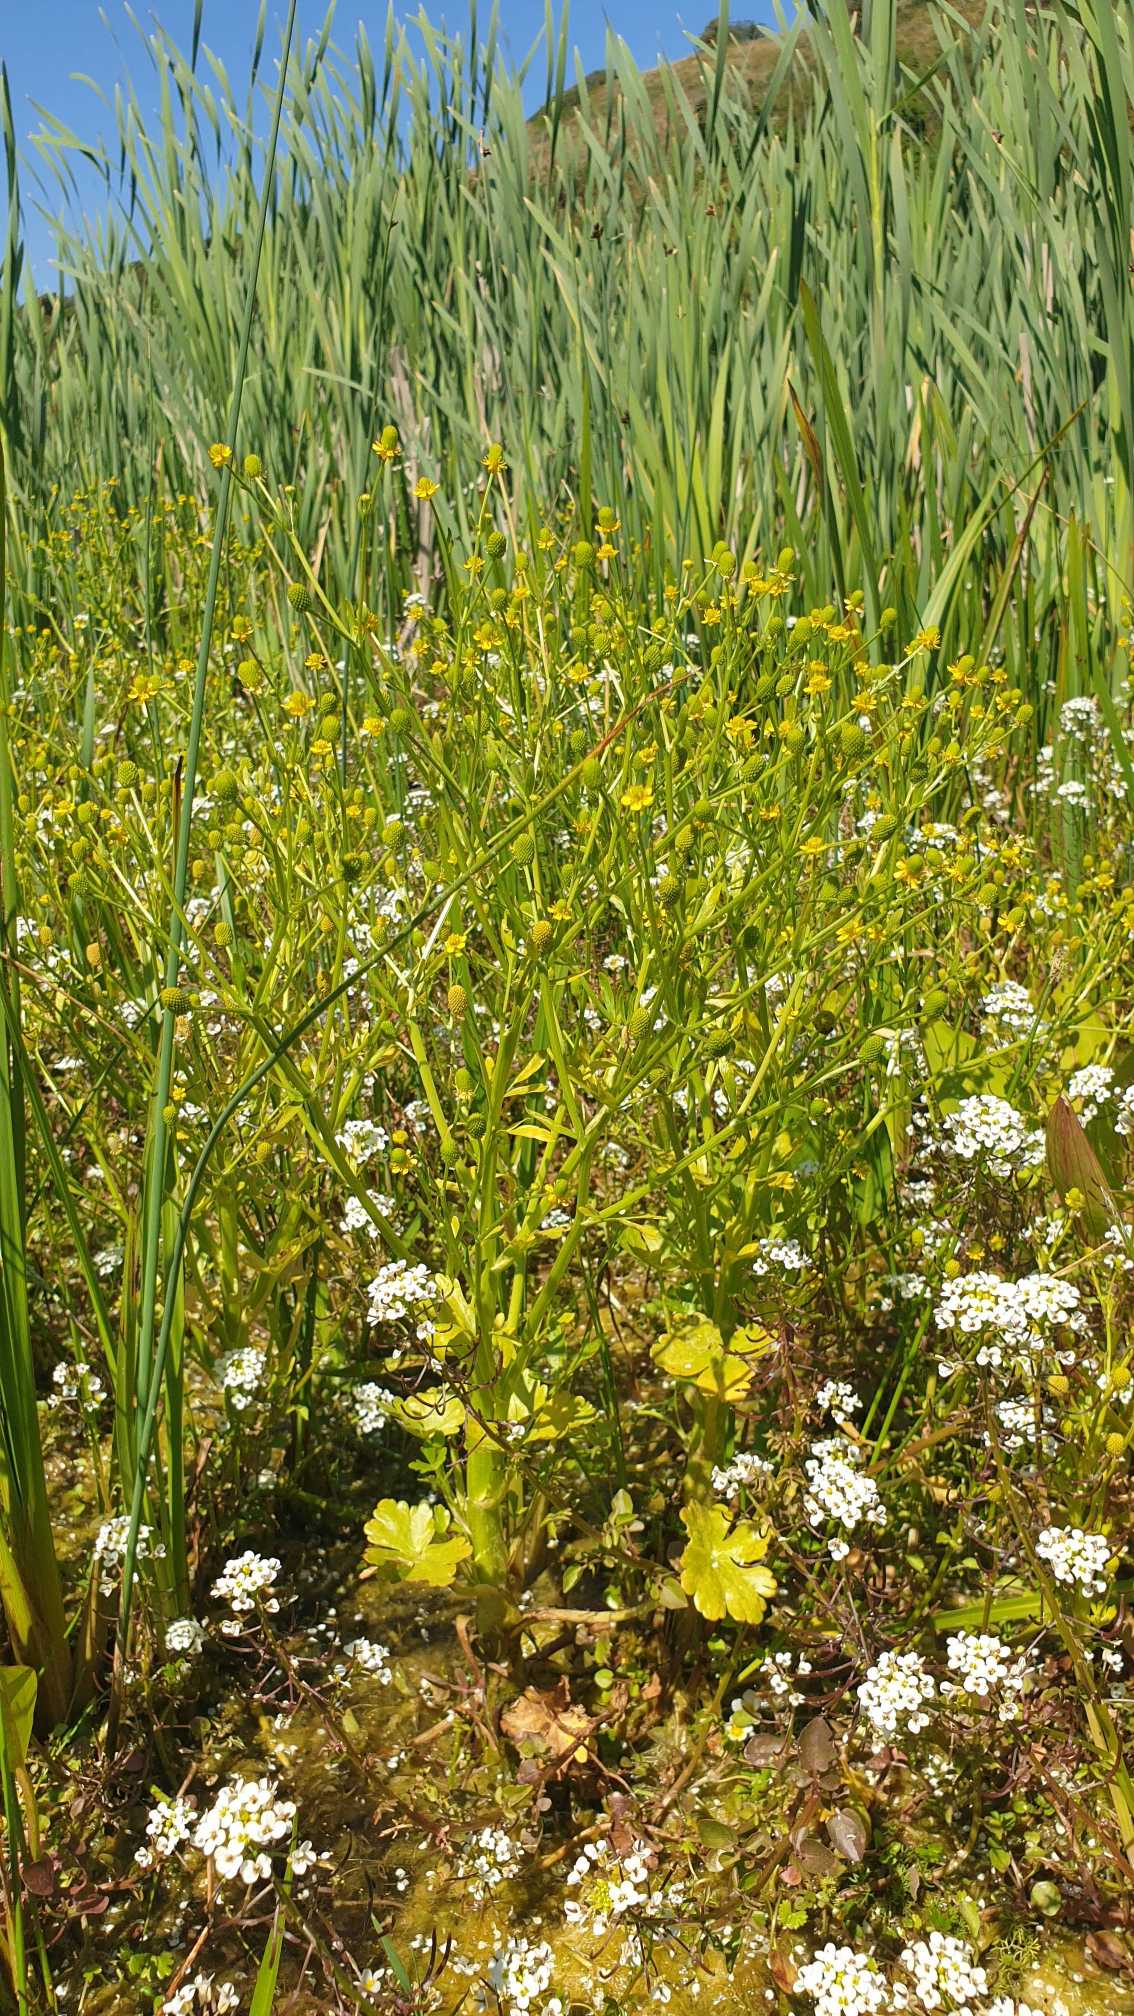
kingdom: Plantae
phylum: Tracheophyta
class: Magnoliopsida
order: Ranunculales
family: Ranunculaceae
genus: Ranunculus
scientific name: Ranunculus sceleratus
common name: Tigger-ranunkel
